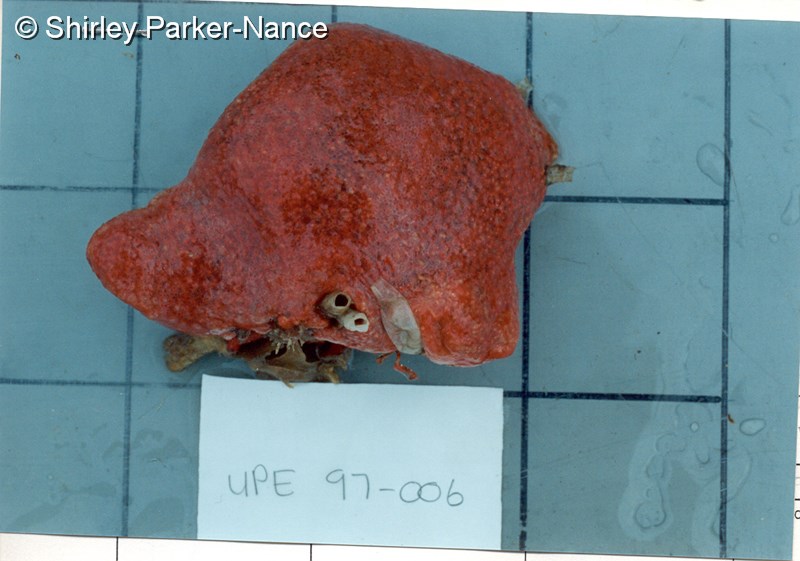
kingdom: Animalia
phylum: Chordata
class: Ascidiacea
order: Aplousobranchia
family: Polyclinidae
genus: Aplidium
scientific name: Aplidium flavolineatum
